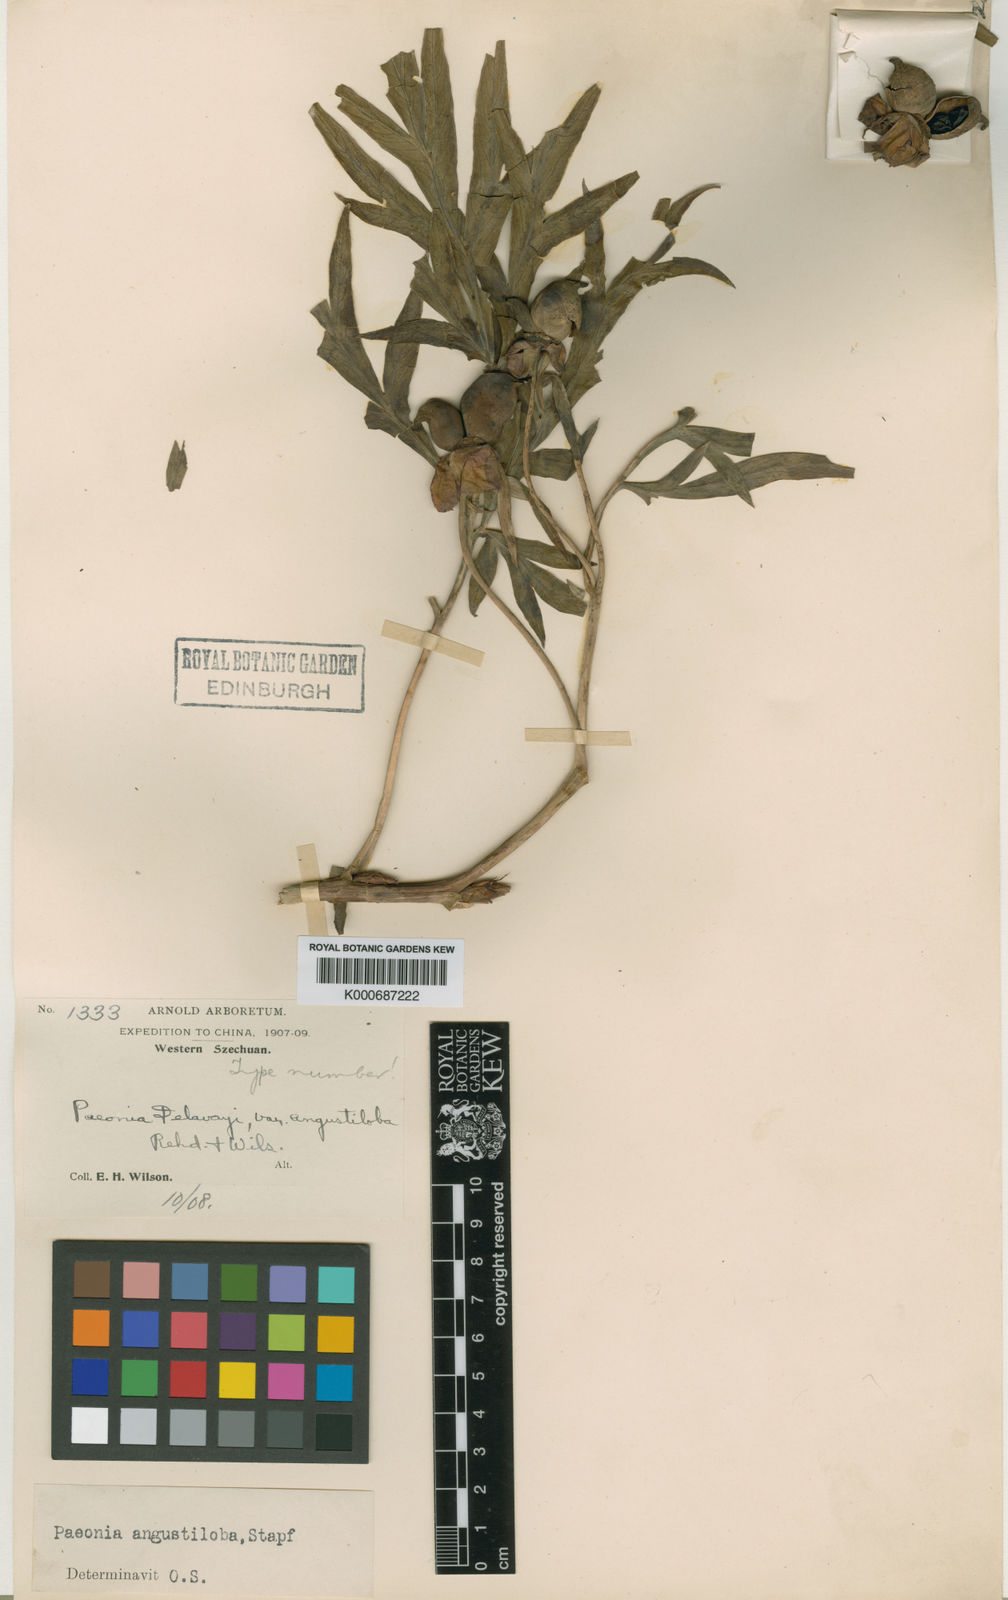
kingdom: Plantae
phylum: Tracheophyta
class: Magnoliopsida
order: Saxifragales
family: Paeoniaceae
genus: Paeonia
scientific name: Paeonia delavayi
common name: Dian mu dan
